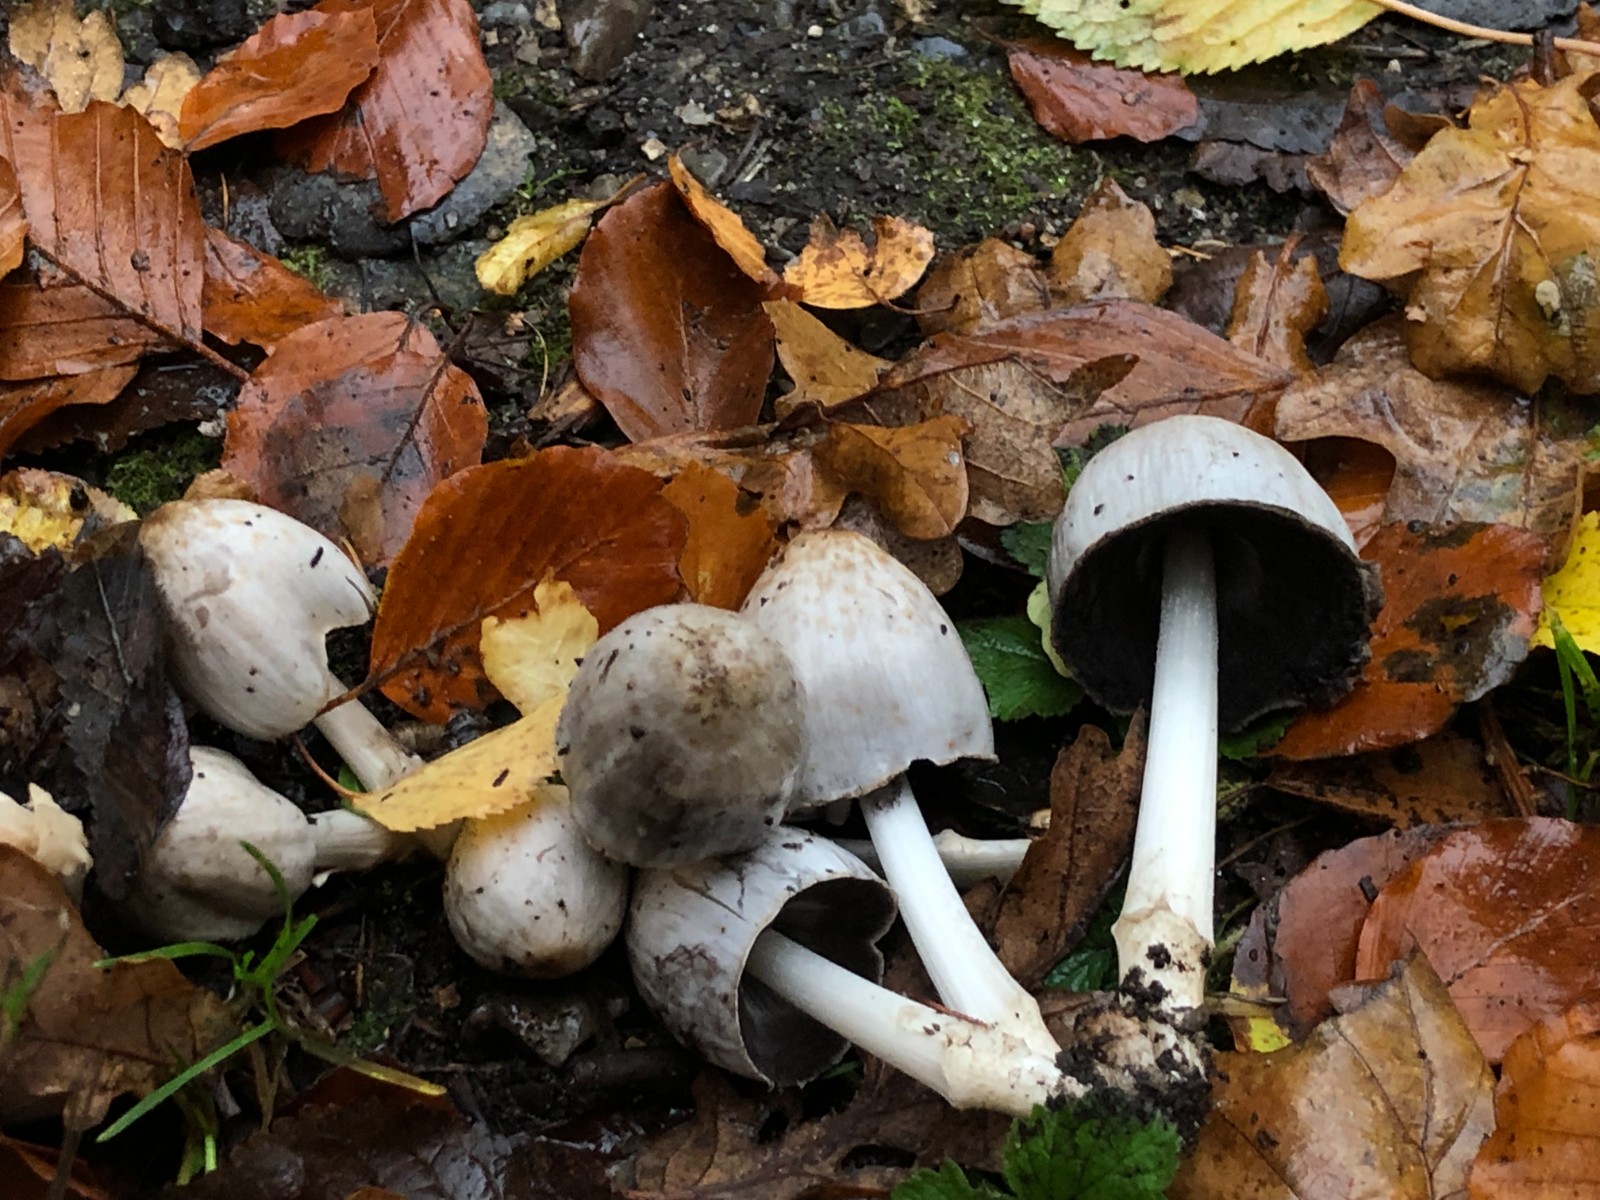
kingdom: Fungi
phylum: Basidiomycota
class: Agaricomycetes
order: Agaricales
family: Psathyrellaceae
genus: Coprinopsis
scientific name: Coprinopsis romagnesiana
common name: brunskællet blækhat
